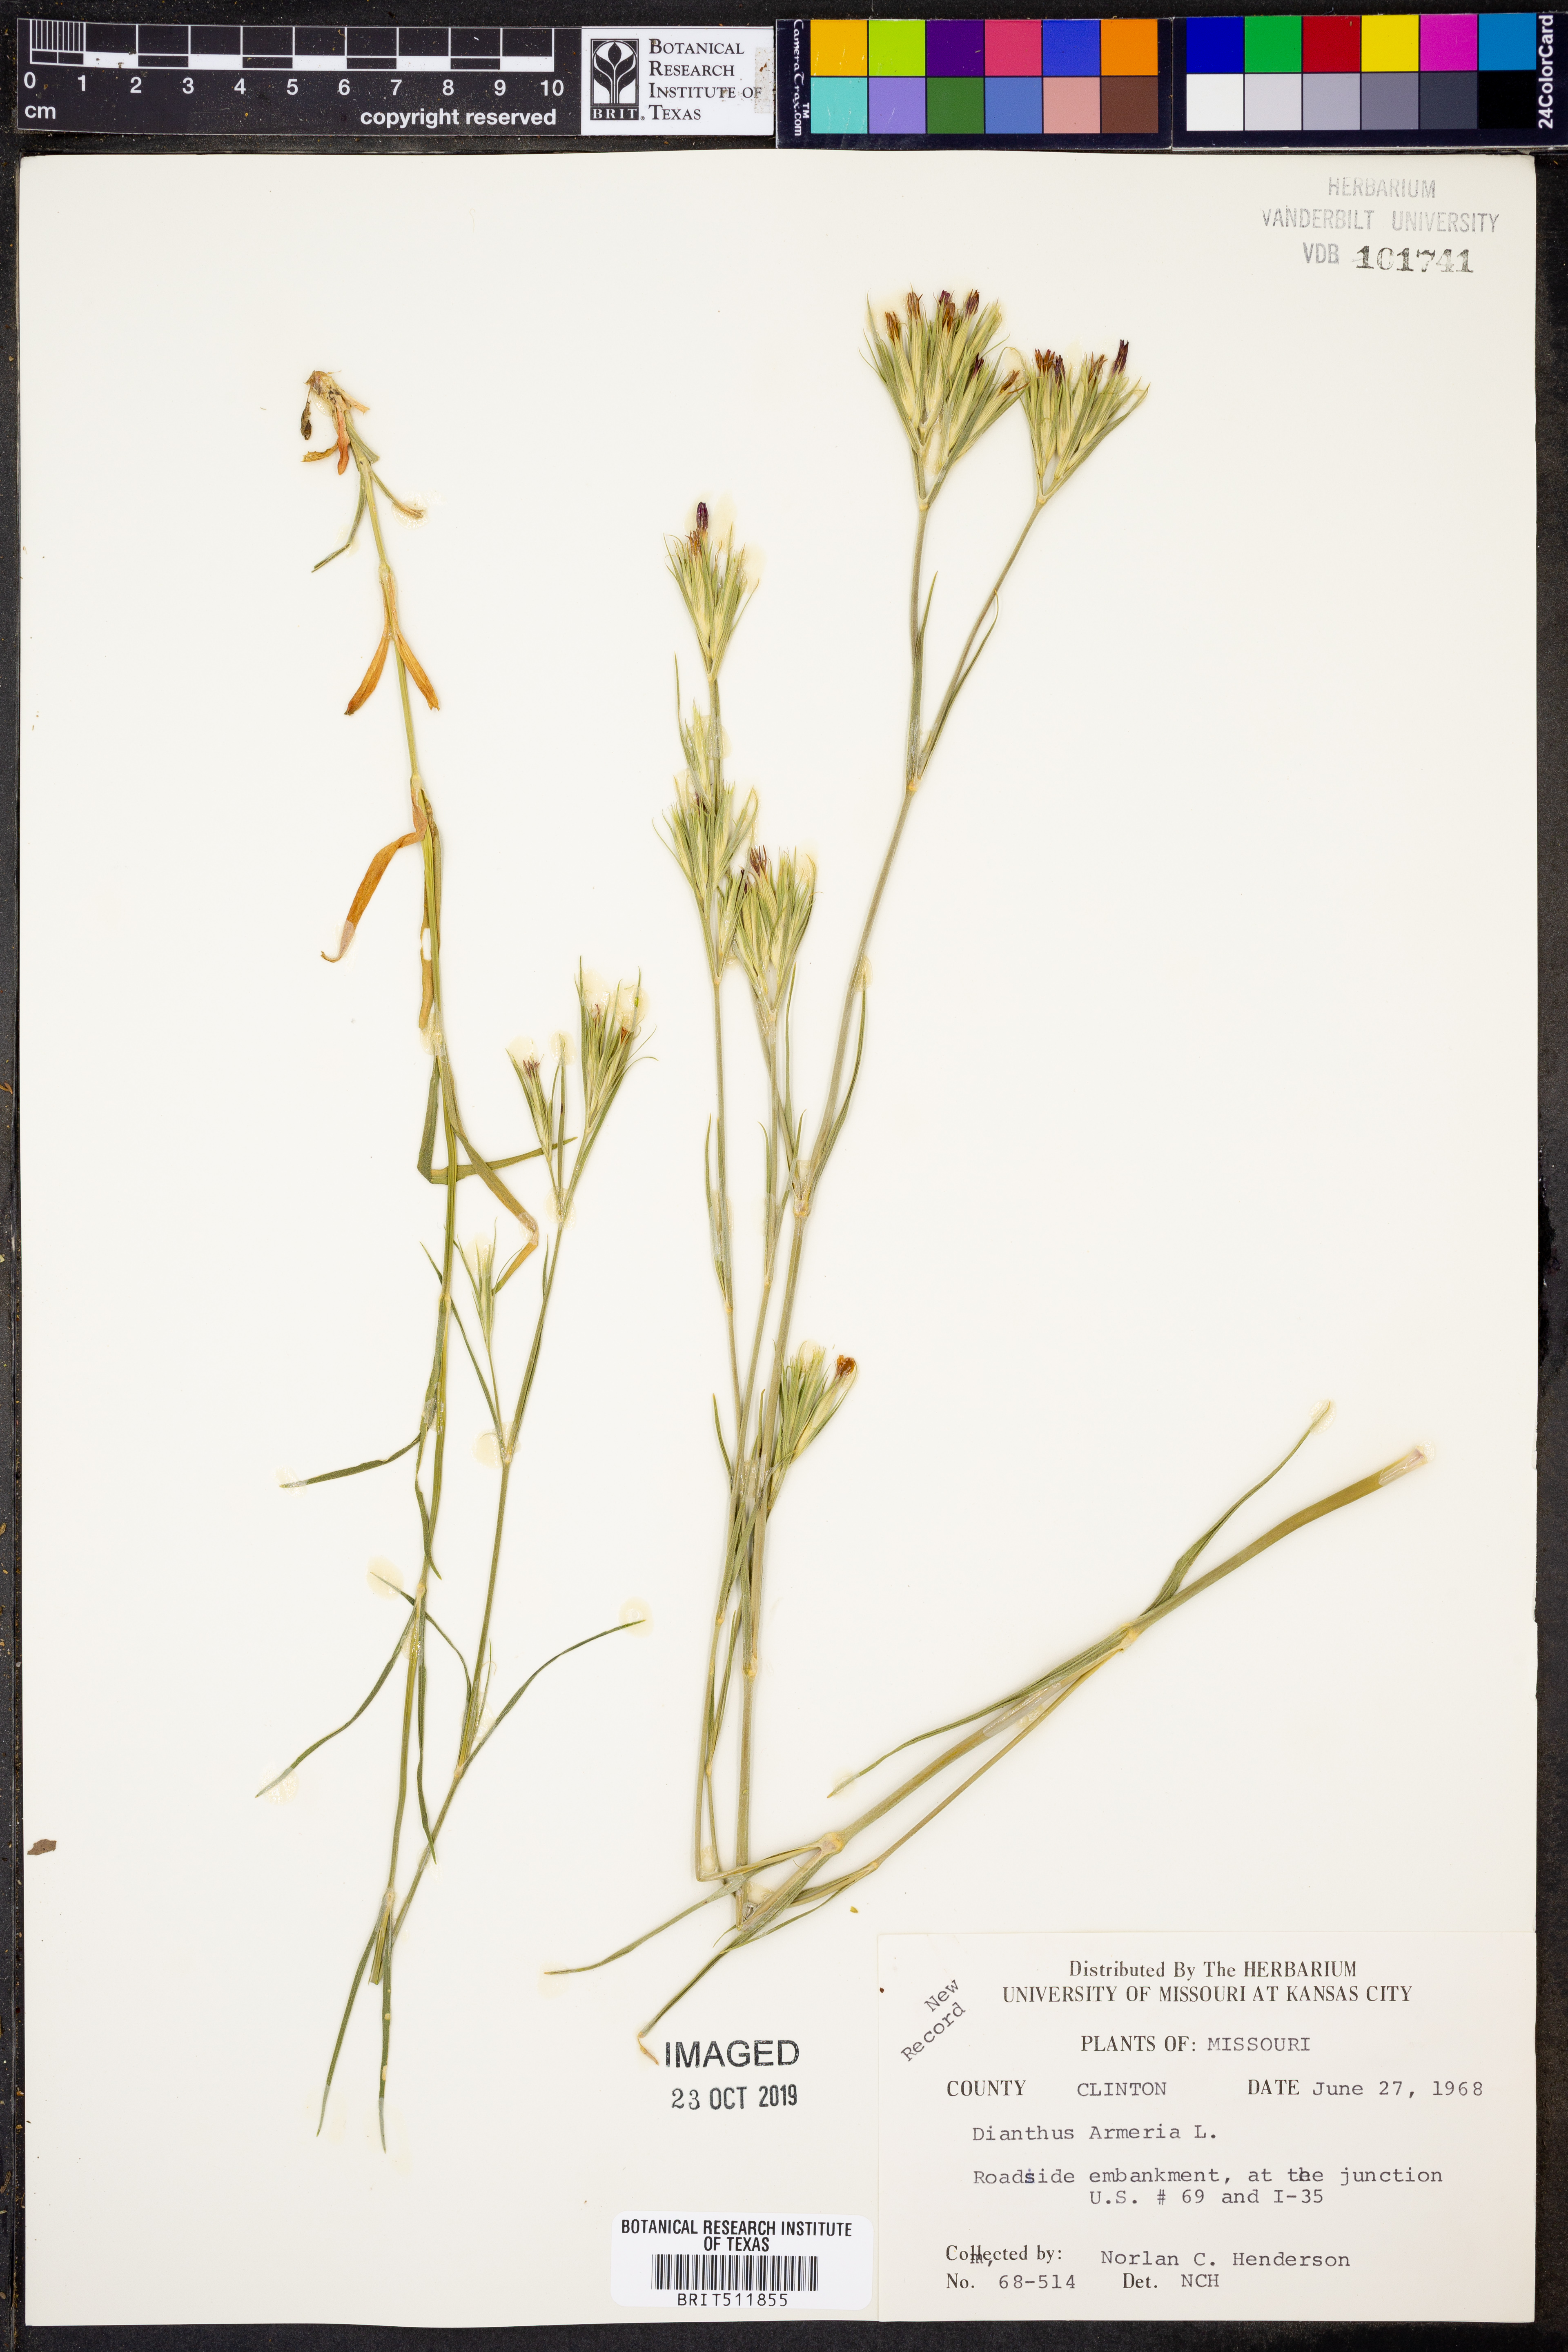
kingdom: Plantae
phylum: Tracheophyta
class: Magnoliopsida
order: Caryophyllales
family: Caryophyllaceae
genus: Dianthus
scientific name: Dianthus armeria
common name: Deptford pink
